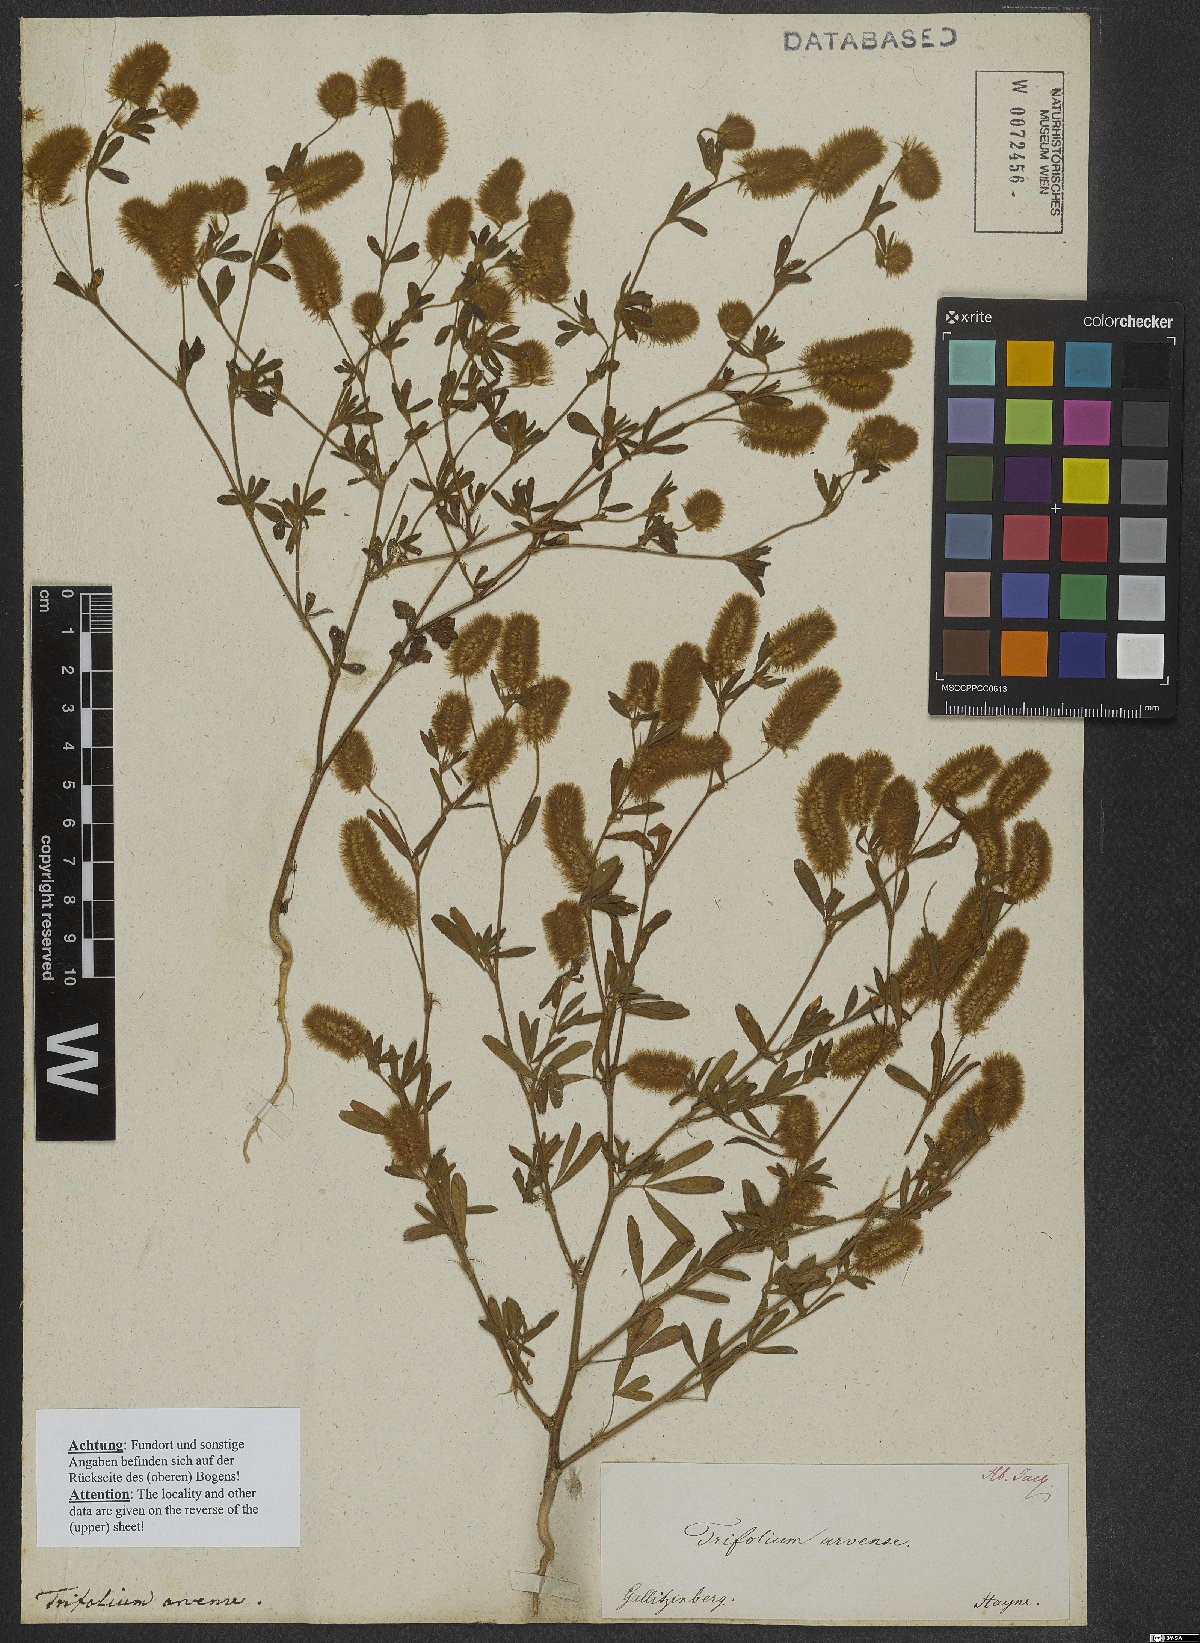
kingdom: Plantae
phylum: Tracheophyta
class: Magnoliopsida
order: Fabales
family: Fabaceae
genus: Trifolium
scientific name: Trifolium arvense
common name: Hare's-foot clover
